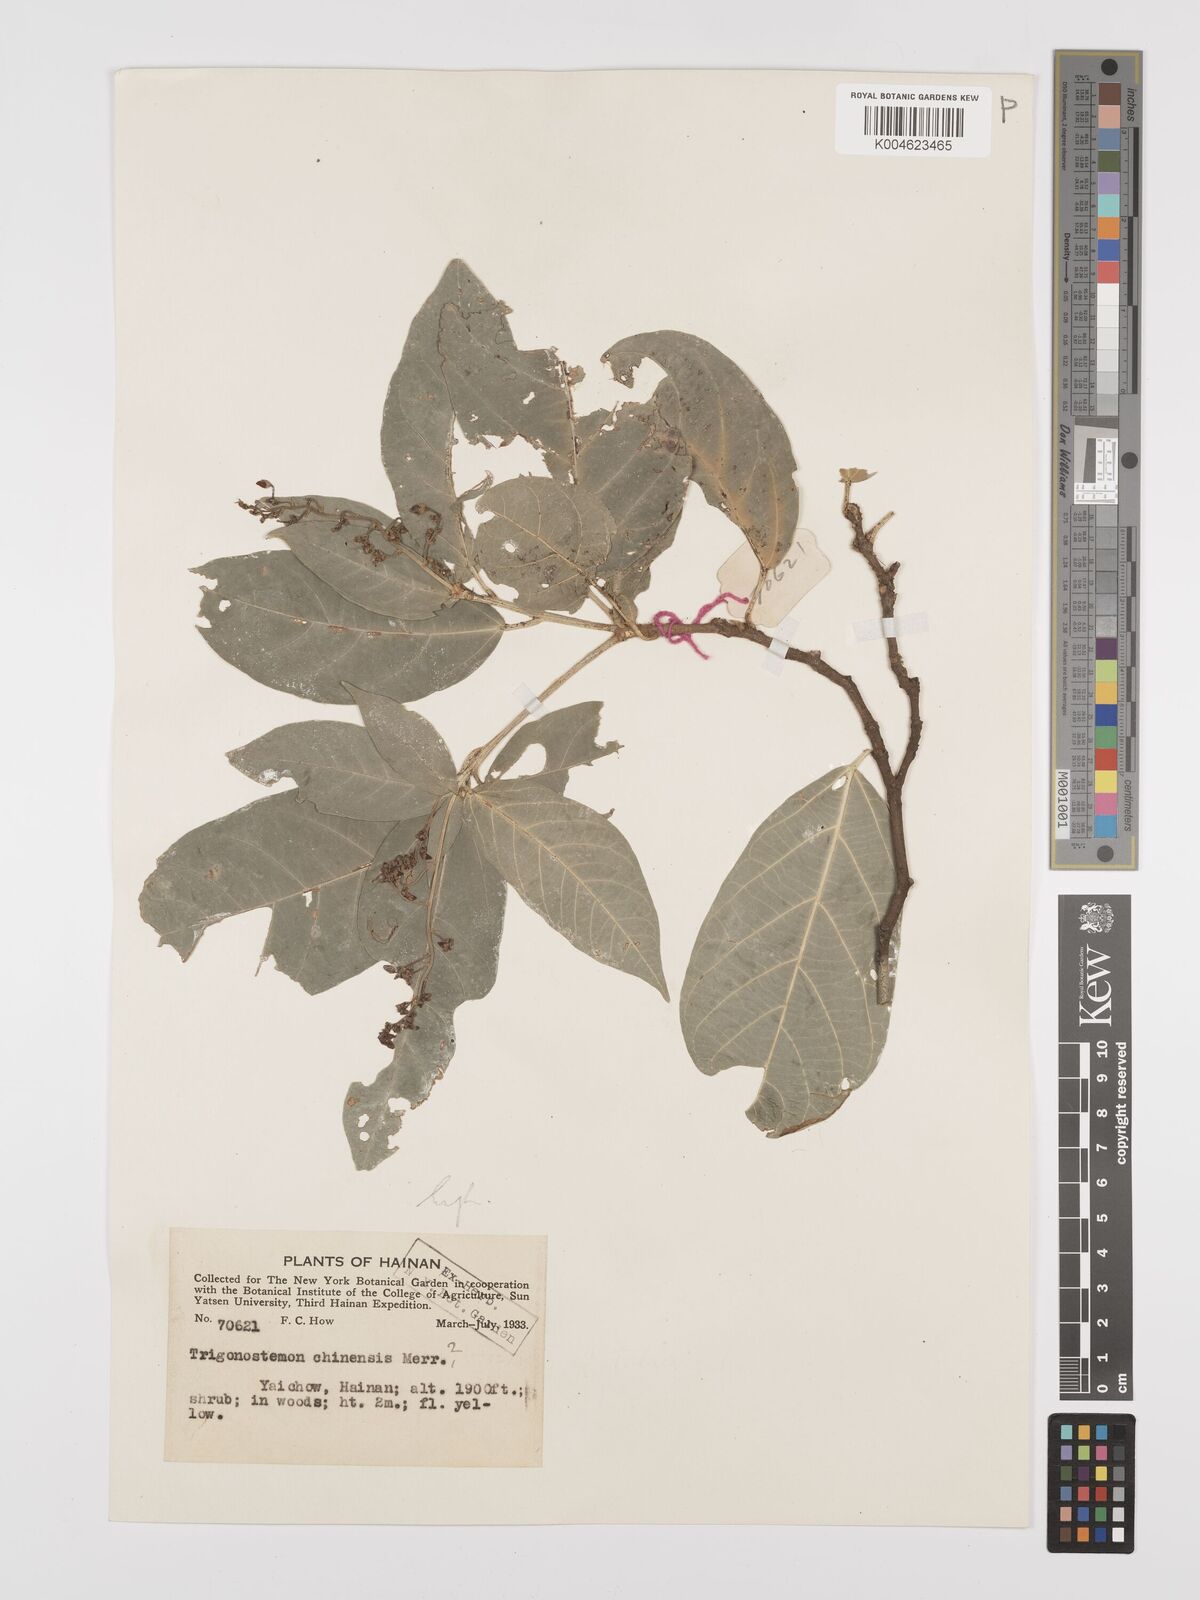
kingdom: Plantae
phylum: Tracheophyta
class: Magnoliopsida
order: Malpighiales
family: Euphorbiaceae
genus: Trigonostemon
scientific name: Trigonostemon viridissimus
